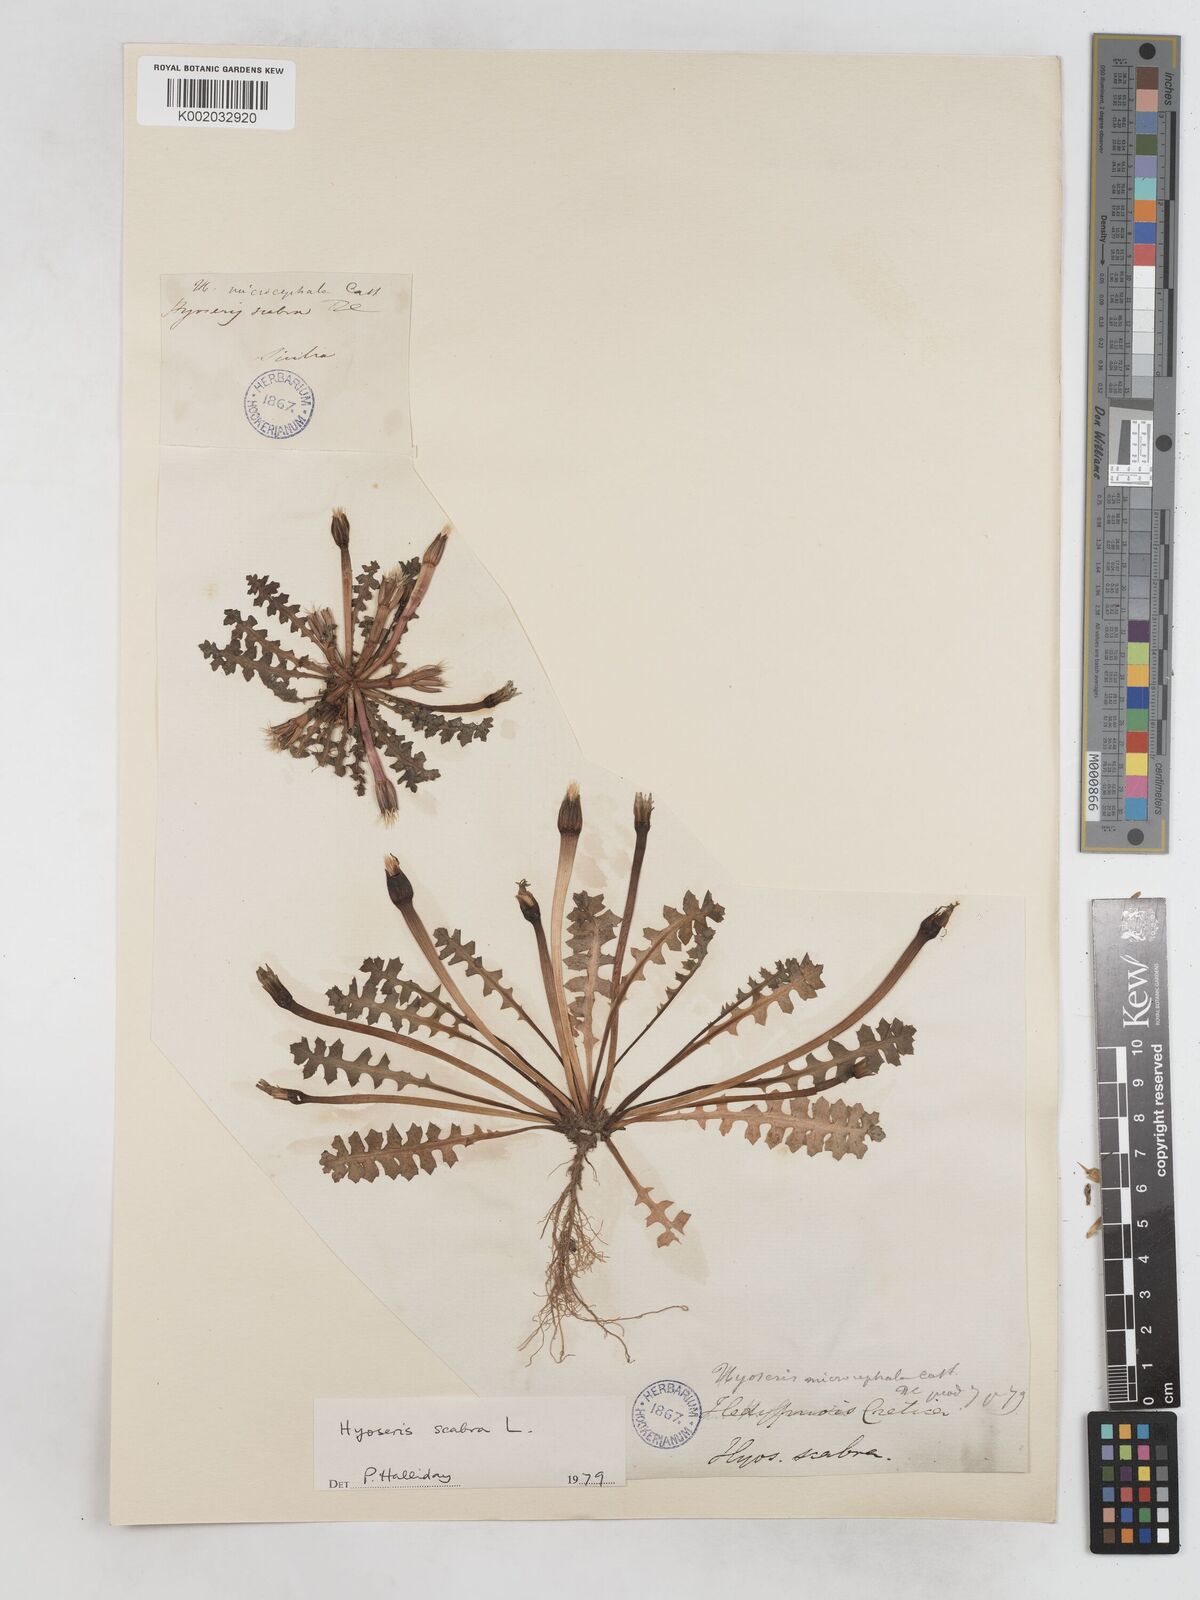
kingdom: Plantae
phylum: Tracheophyta
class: Magnoliopsida
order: Asterales
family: Asteraceae
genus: Hedypnois
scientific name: Hedypnois rhagadioloides
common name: Cretan weed
